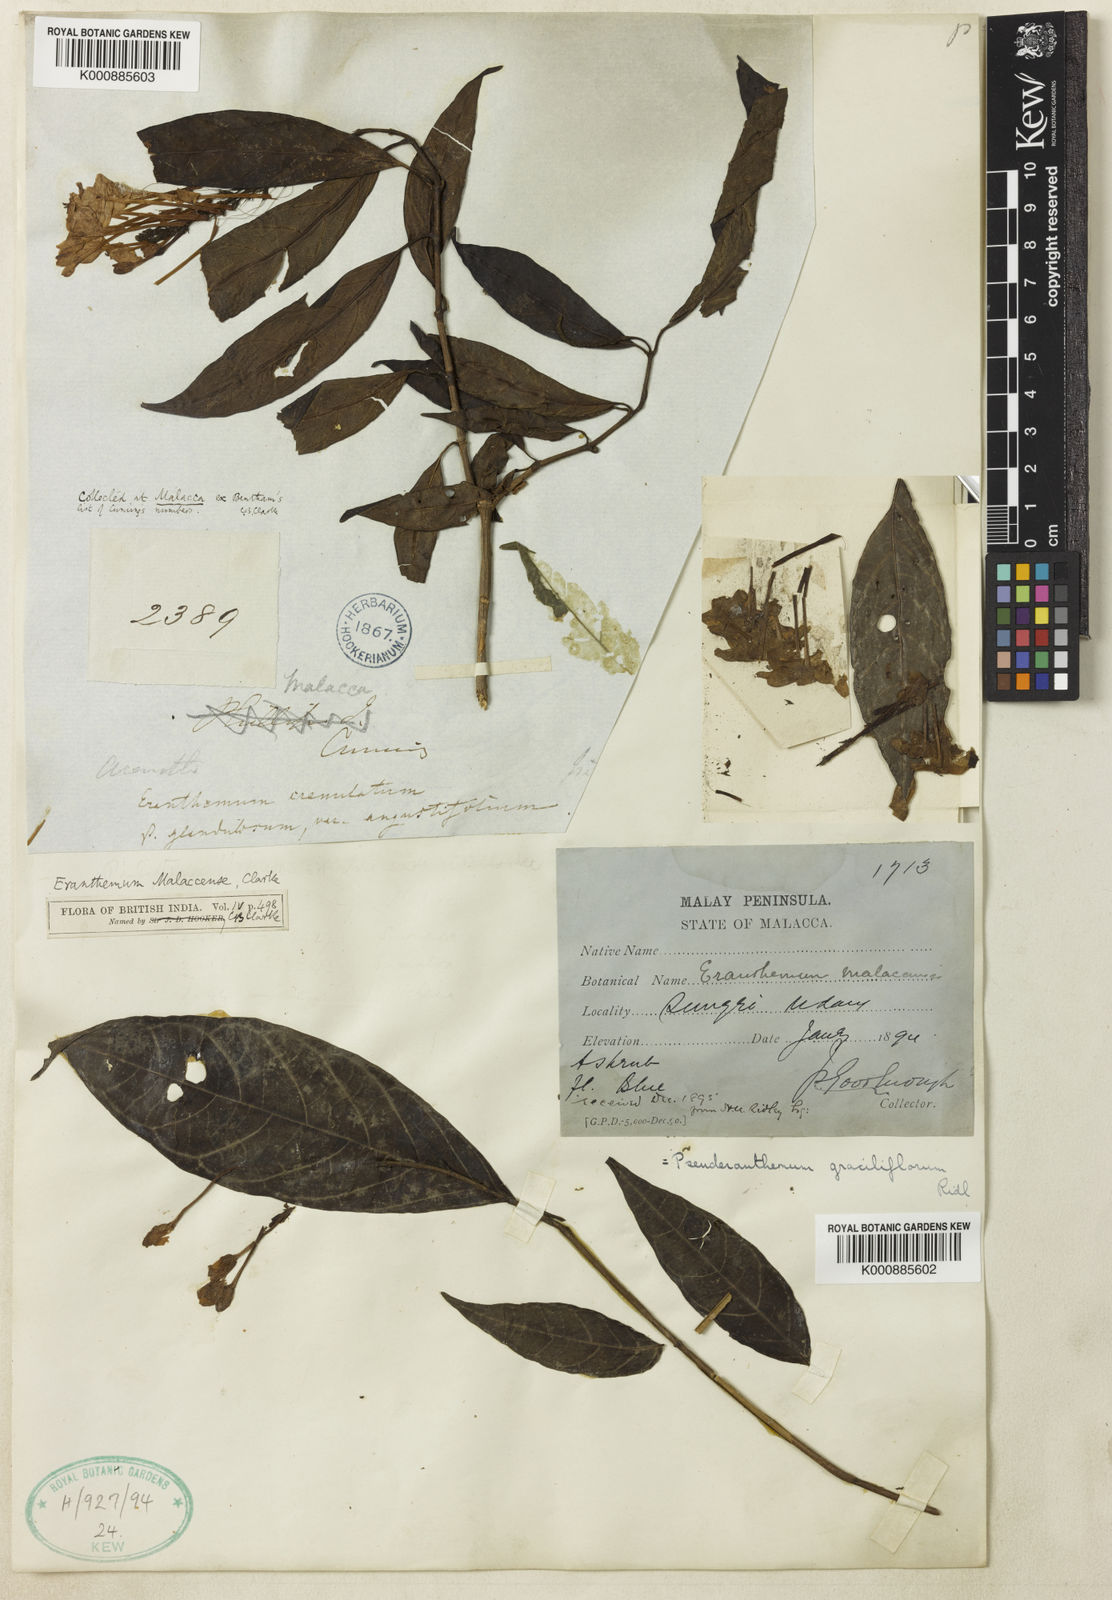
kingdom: Plantae
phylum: Tracheophyta
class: Magnoliopsida
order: Lamiales
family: Acanthaceae
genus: Pseuderanthemum
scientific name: Pseuderanthemum graciliflorum
